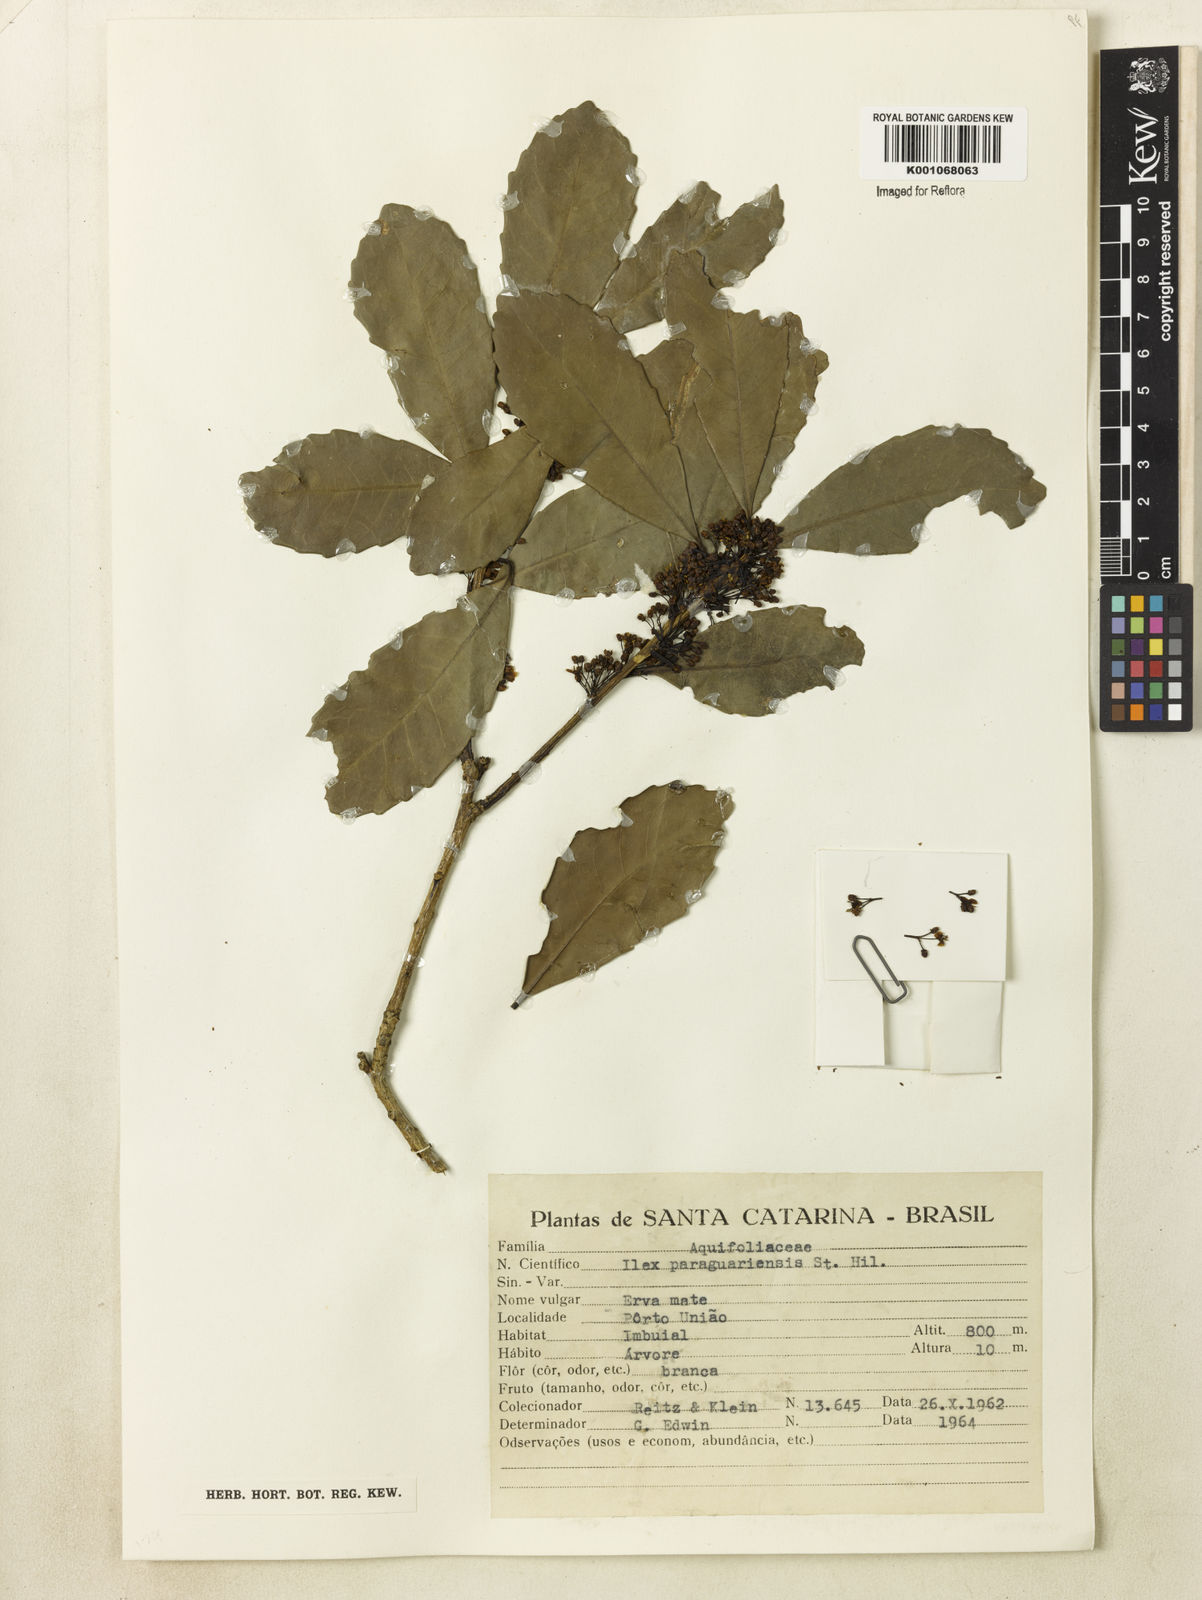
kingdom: Plantae
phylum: Tracheophyta
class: Magnoliopsida
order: Aquifoliales
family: Aquifoliaceae
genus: Ilex
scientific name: Ilex paraguariensis
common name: Paraguay tea
